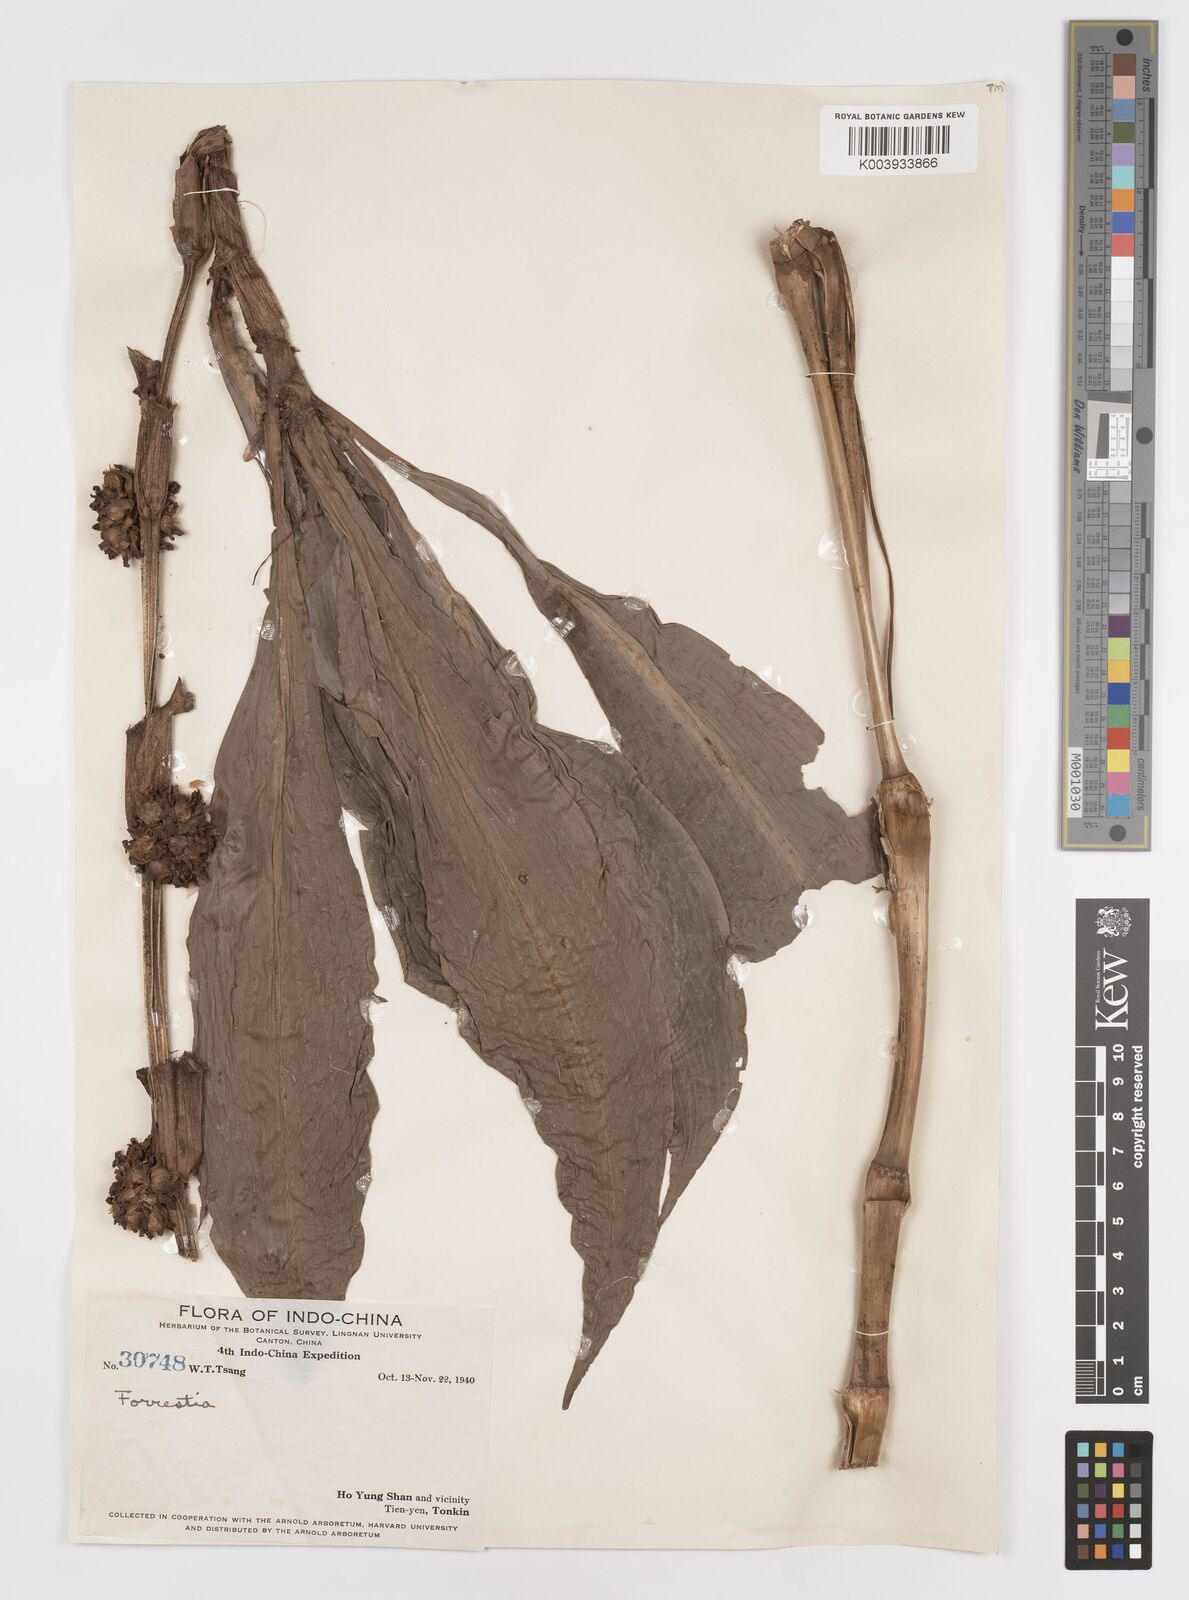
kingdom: Plantae
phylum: Tracheophyta
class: Liliopsida
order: Commelinales
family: Commelinaceae
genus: Amischotolype
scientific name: Amischotolype
